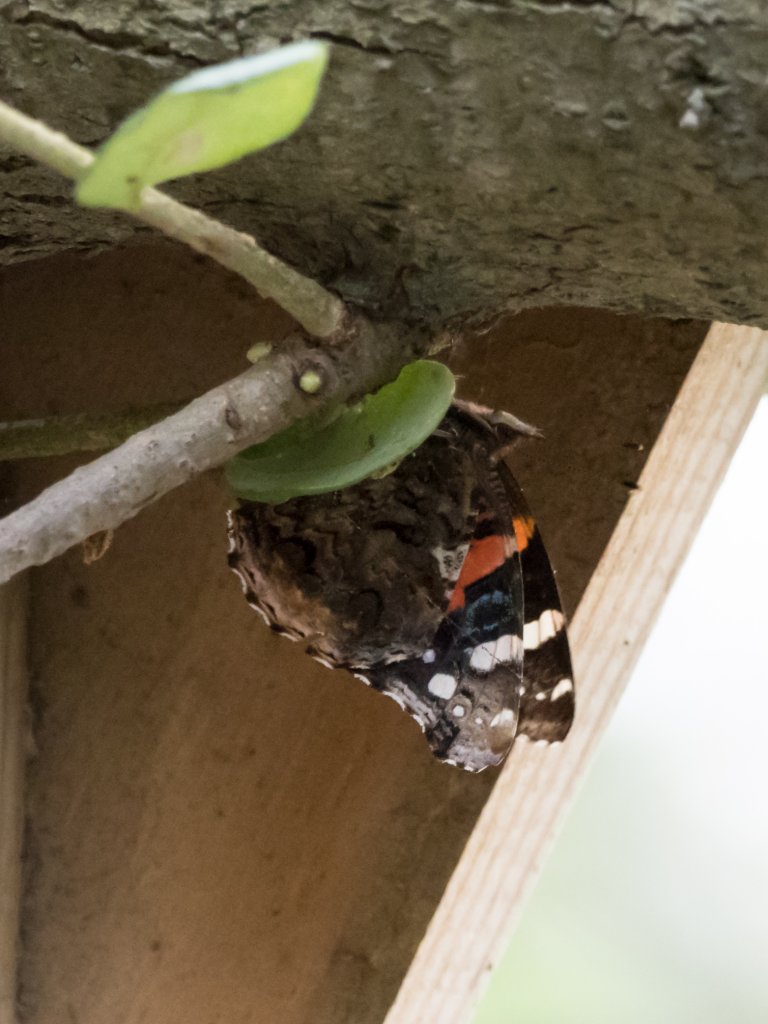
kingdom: Animalia
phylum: Arthropoda
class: Insecta
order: Lepidoptera
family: Nymphalidae
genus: Vanessa
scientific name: Vanessa atalanta
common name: Red Admiral
